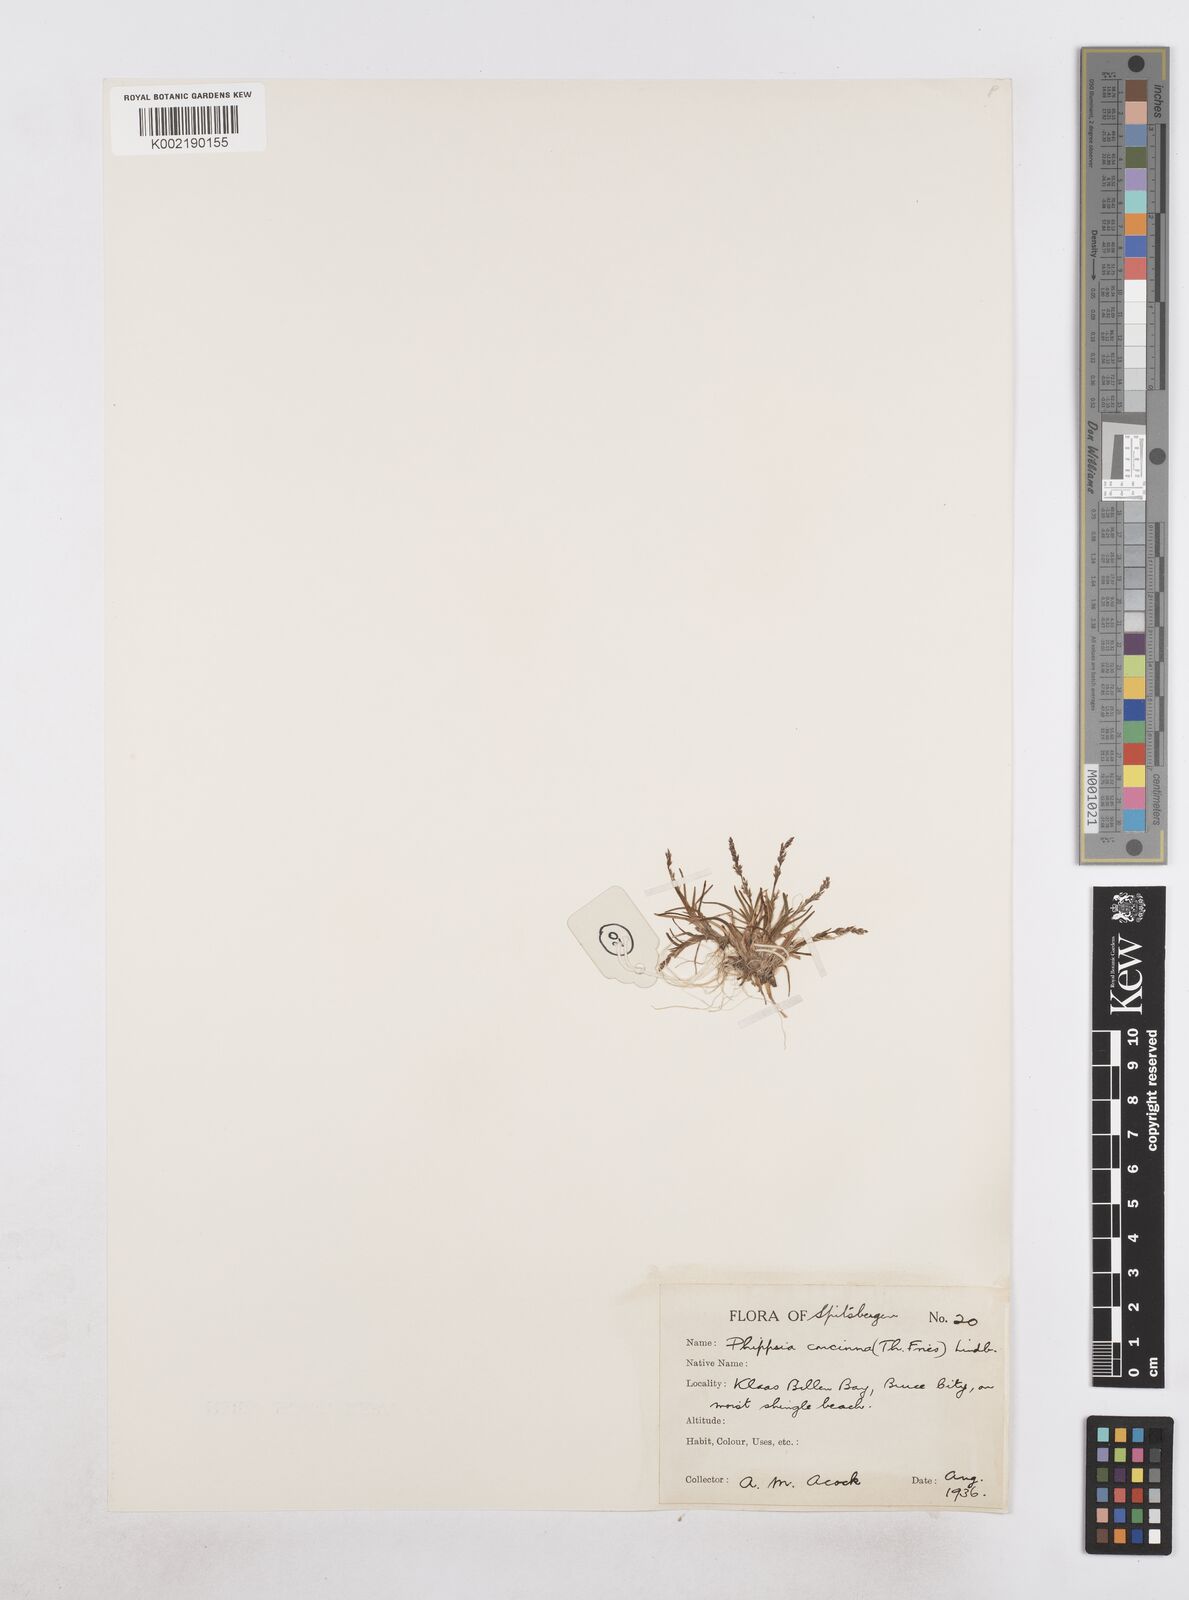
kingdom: Plantae
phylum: Tracheophyta
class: Liliopsida
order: Poales
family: Poaceae
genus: Phippsia
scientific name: Phippsia concinna
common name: Snowgrass
